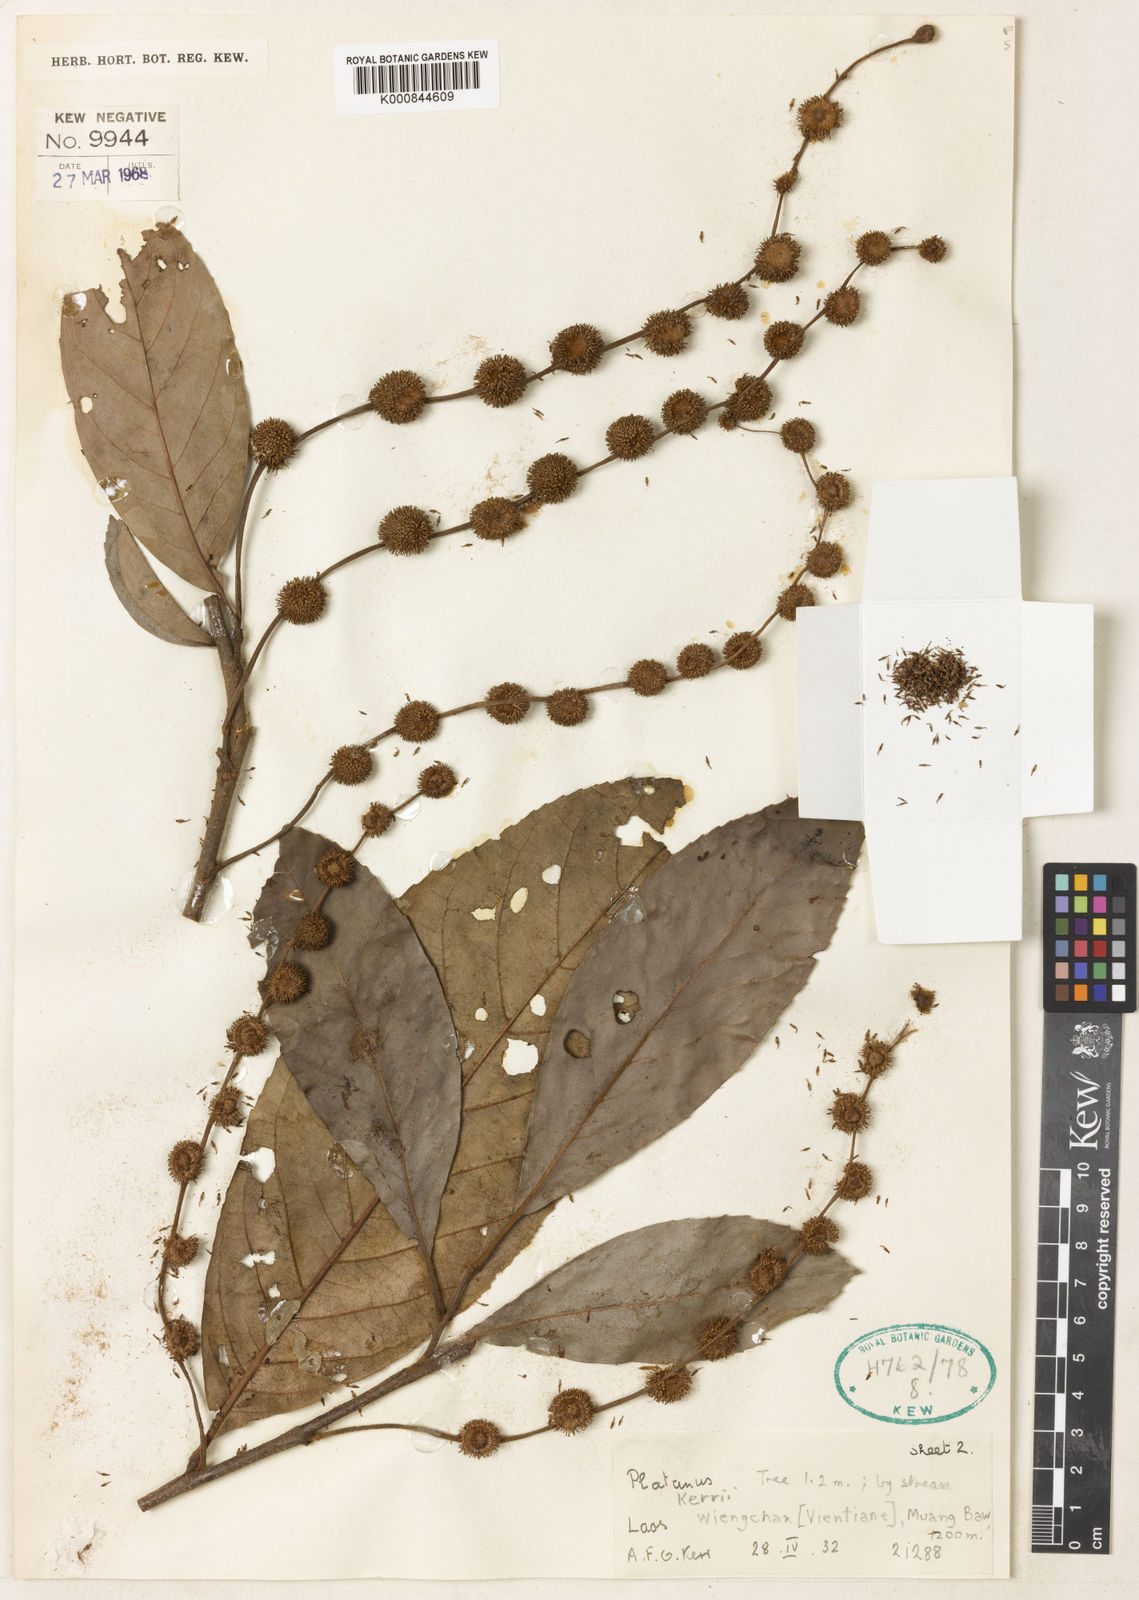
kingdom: Plantae
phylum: Tracheophyta
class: Magnoliopsida
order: Proteales
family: Platanaceae
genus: Platanus
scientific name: Platanus kerrii
